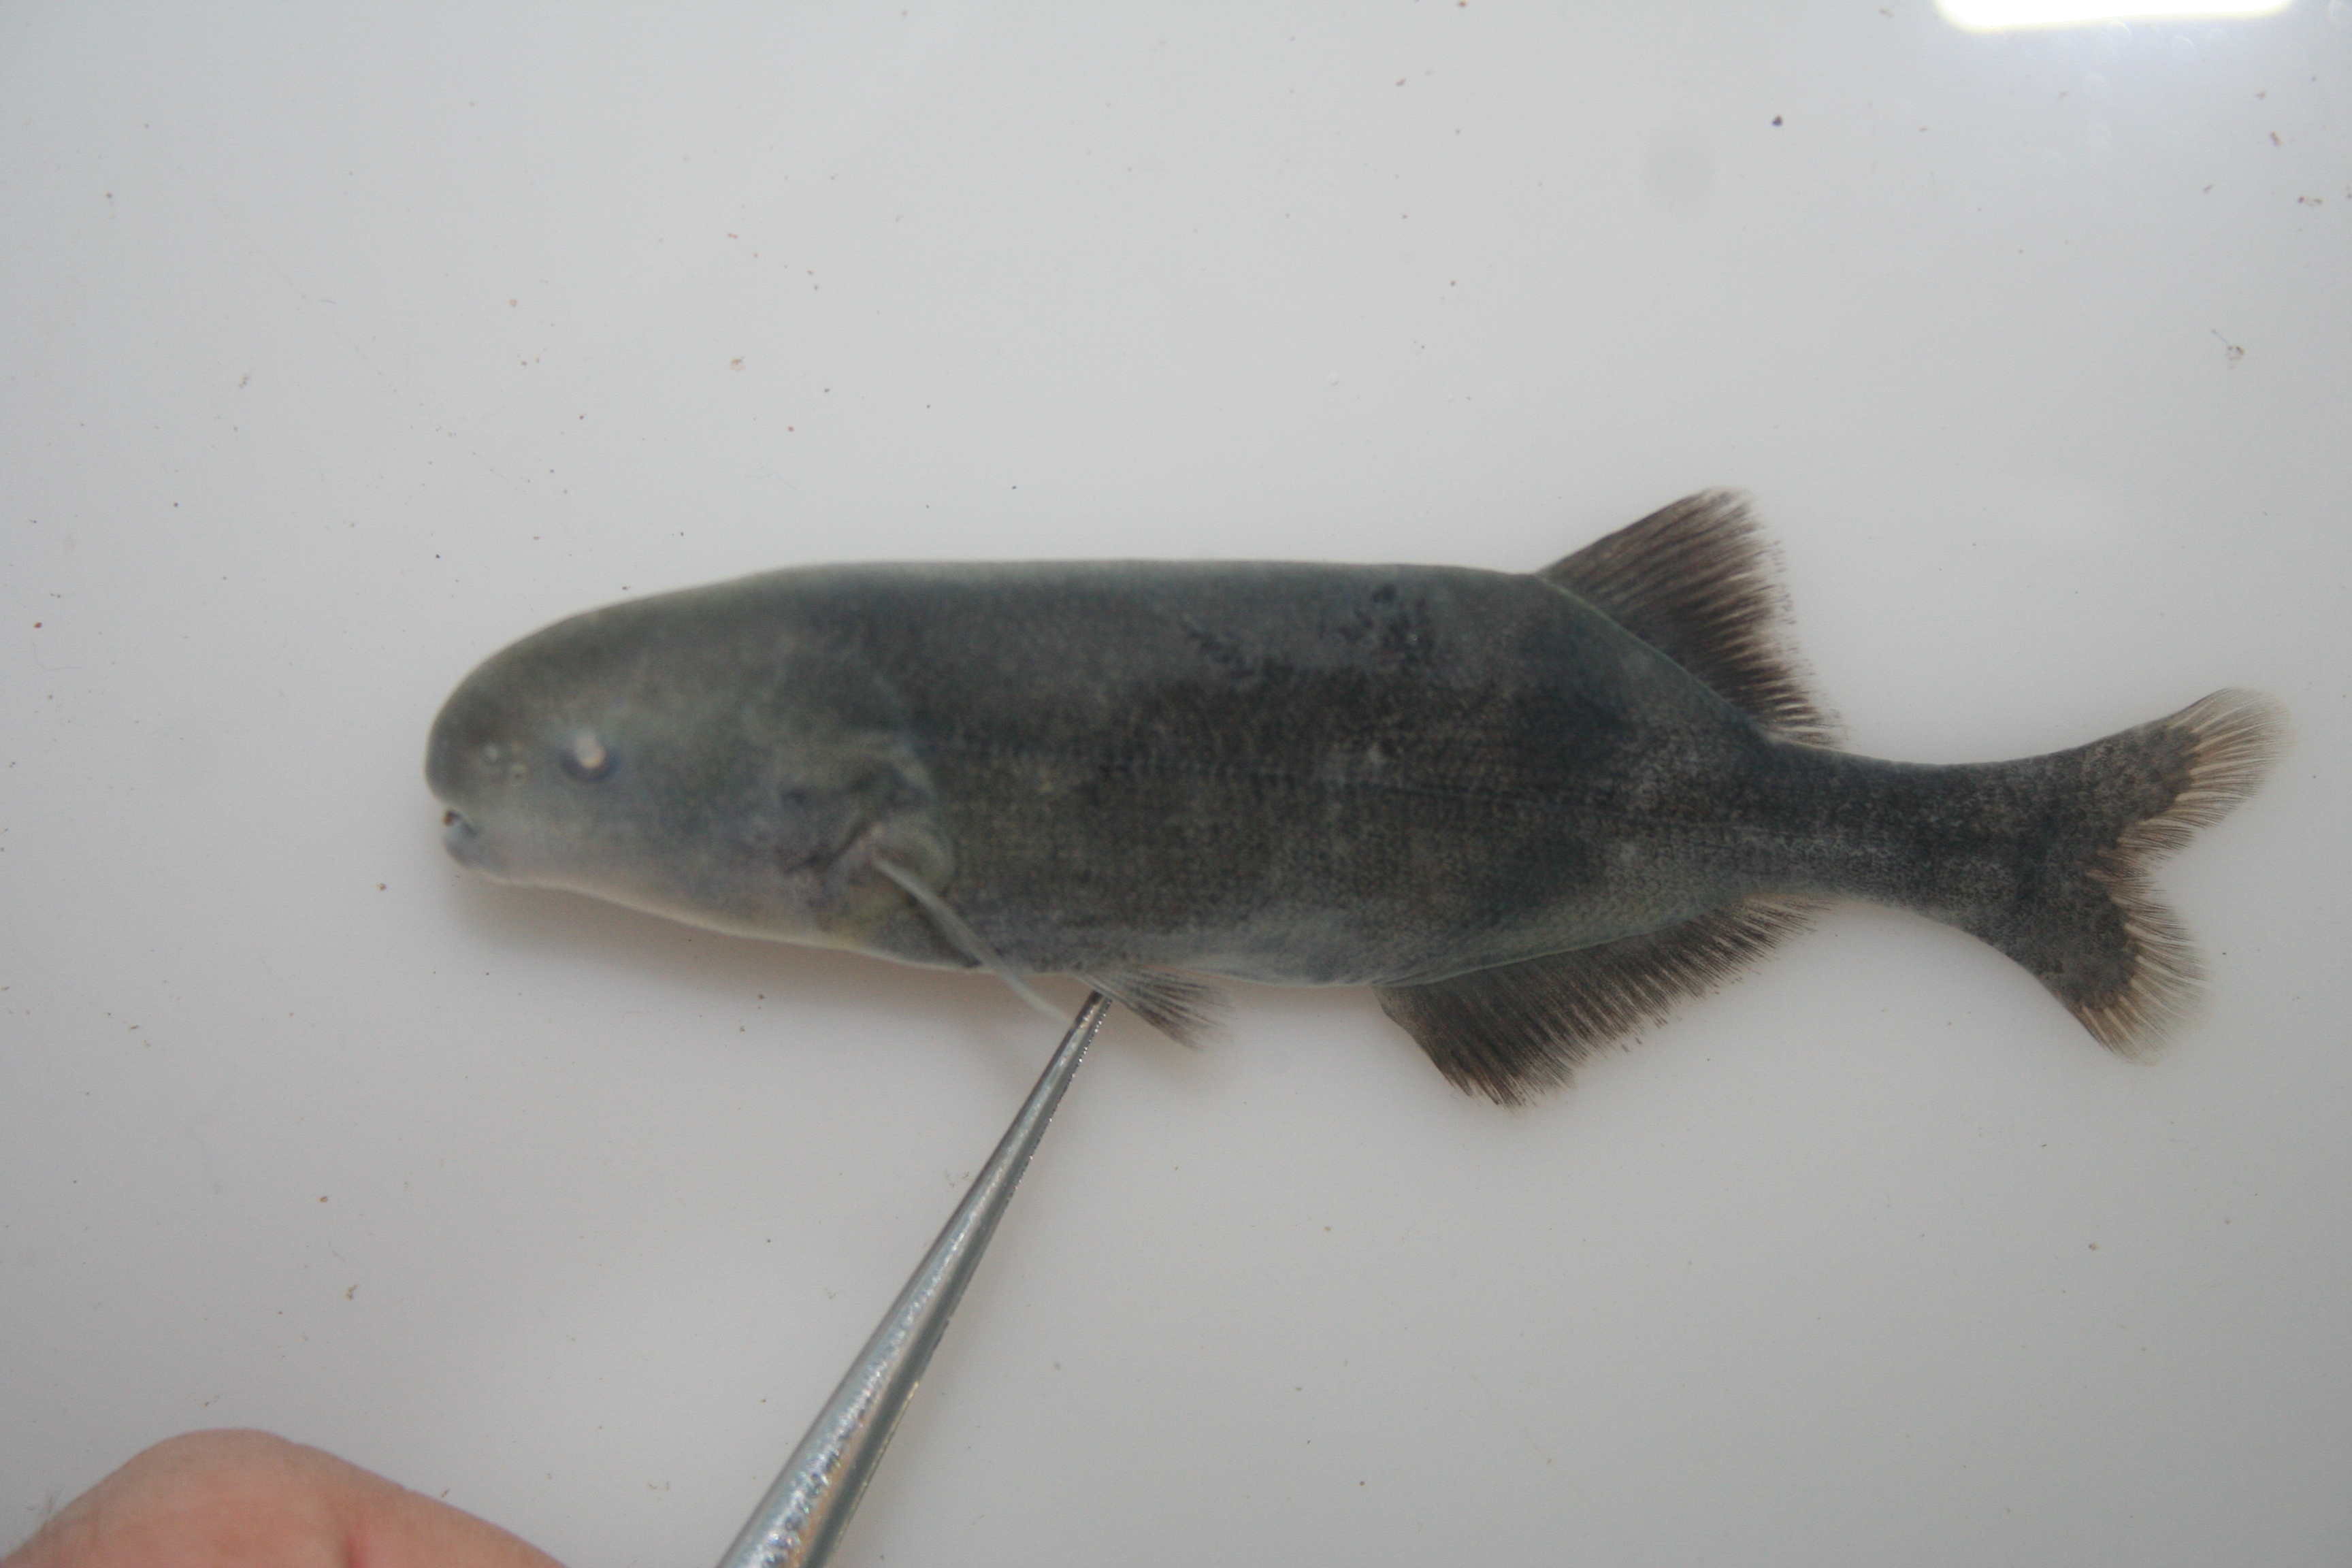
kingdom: Animalia
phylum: Chordata
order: Osteoglossiformes
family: Mormyridae
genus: Hippopotamyrus
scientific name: Hippopotamyrus
